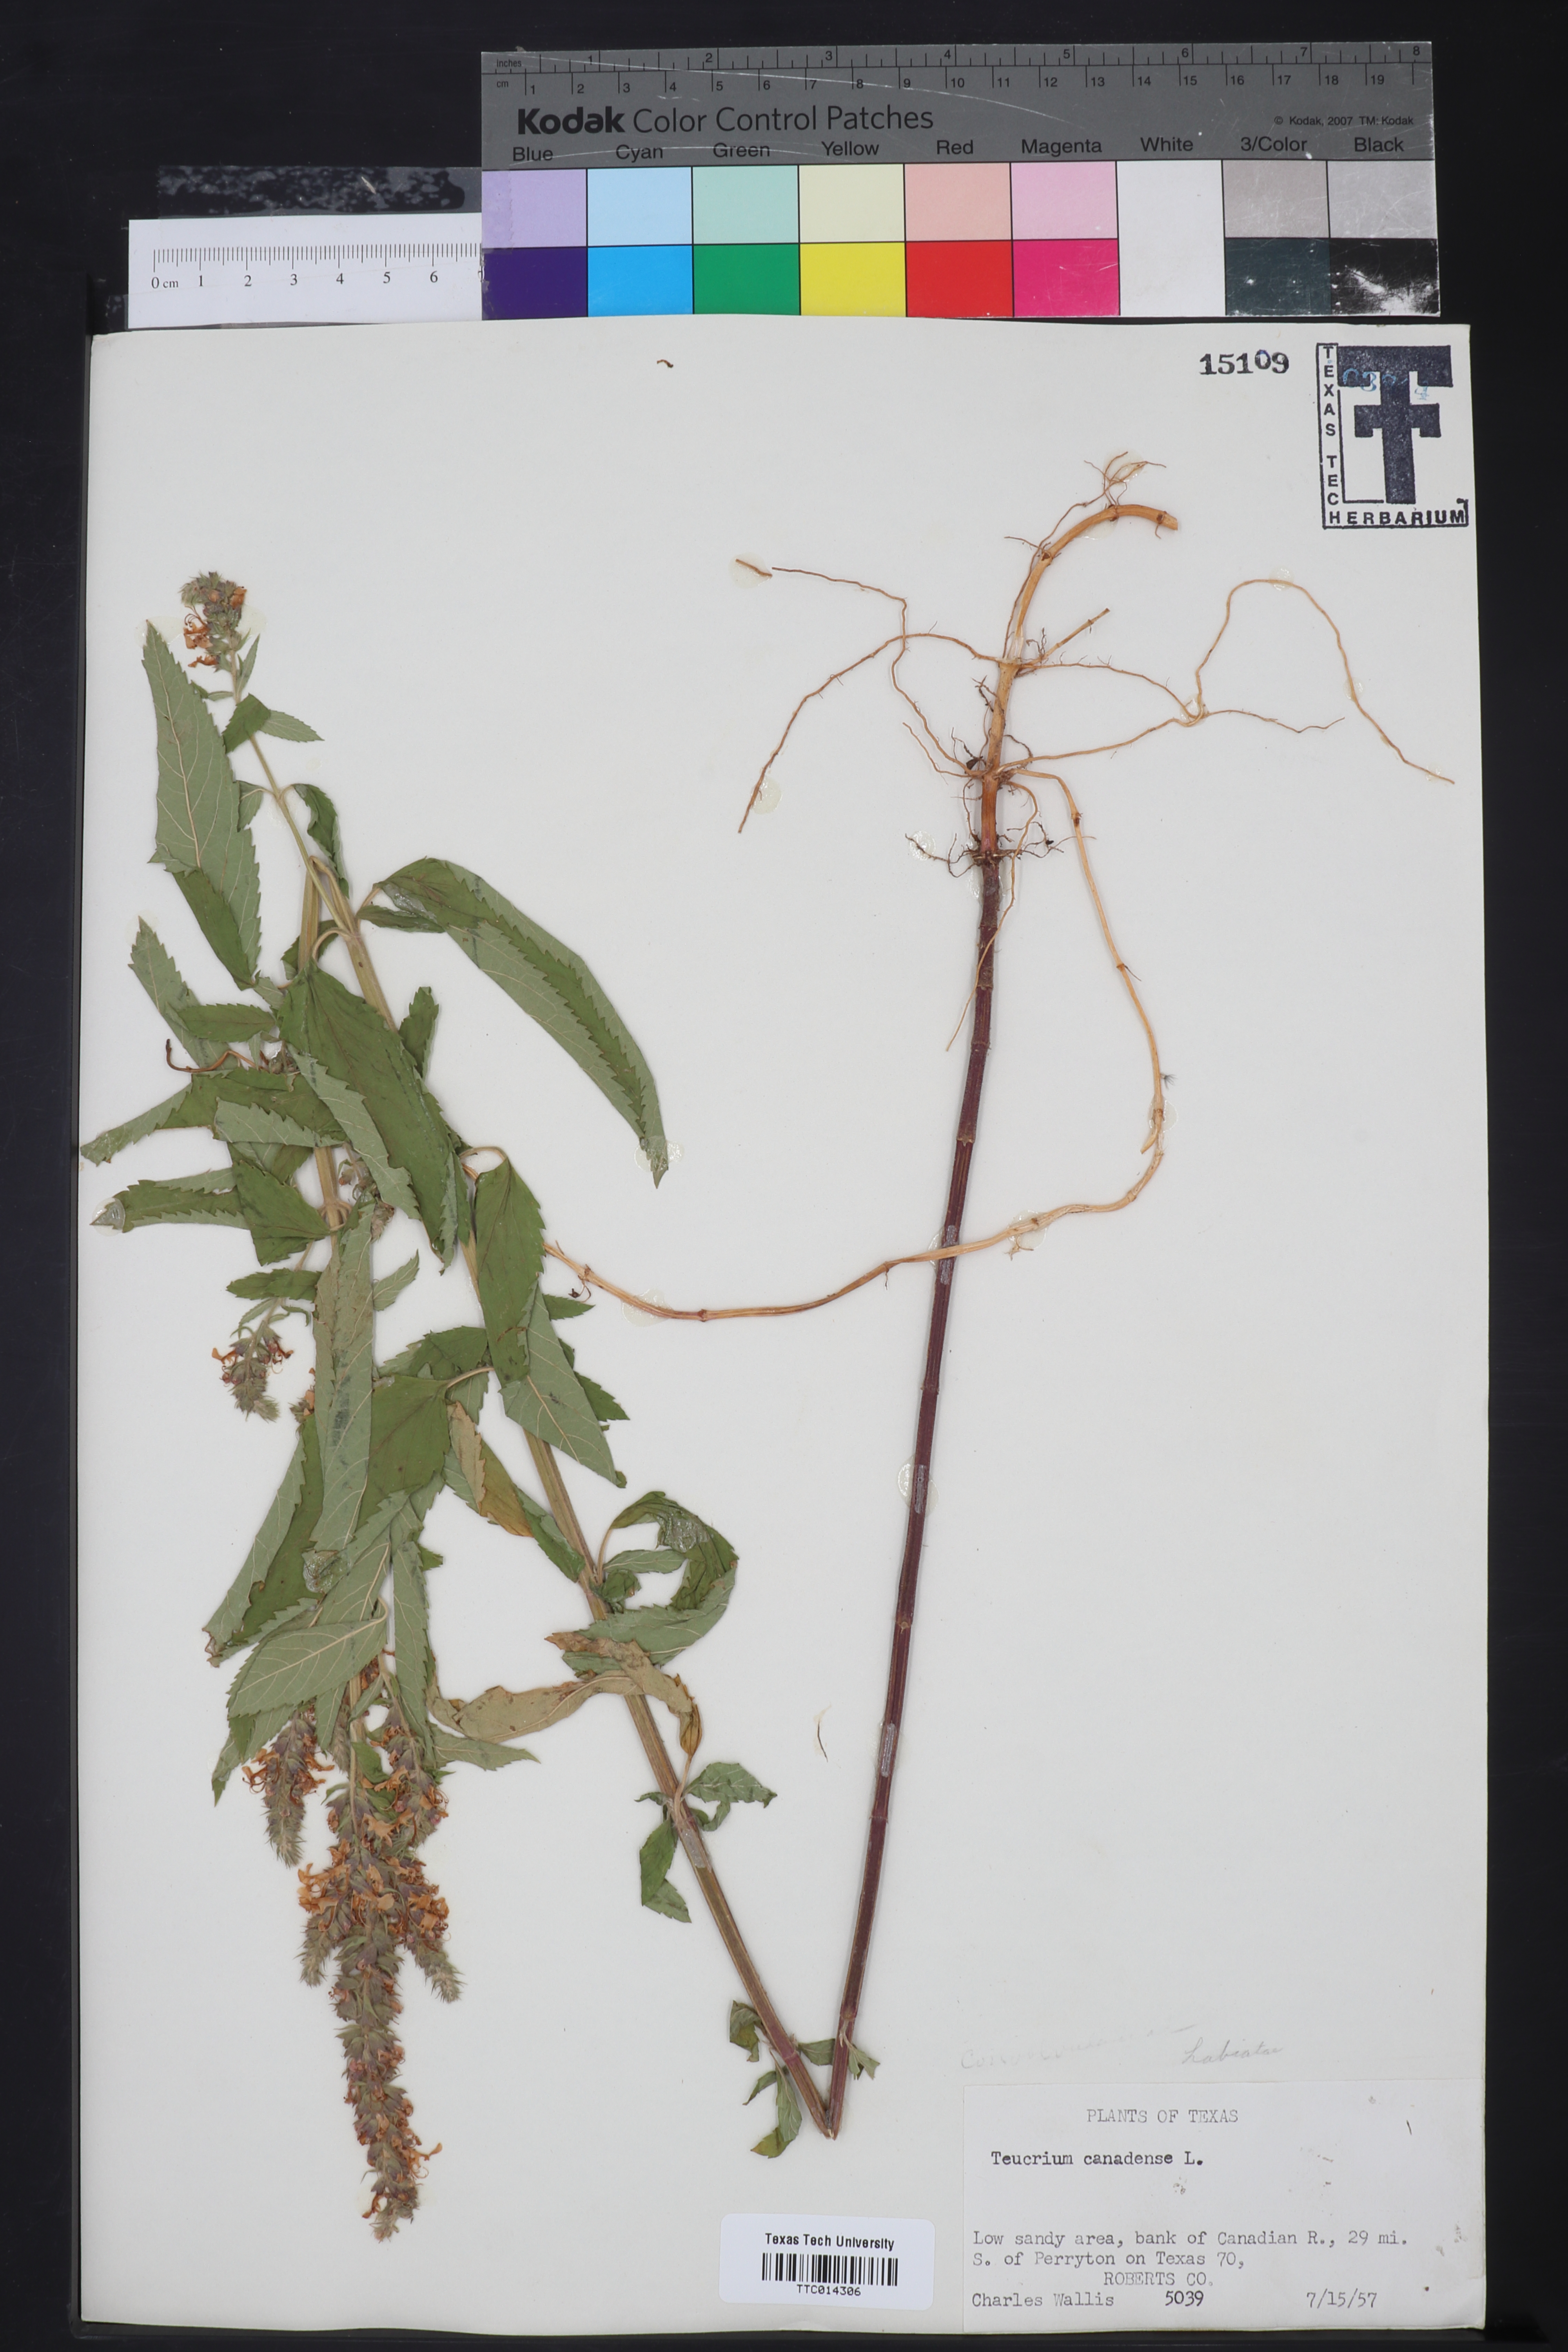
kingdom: Plantae
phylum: Tracheophyta
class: Magnoliopsida
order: Lamiales
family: Lamiaceae
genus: Teucrium
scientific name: Teucrium canadense
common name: American germander
